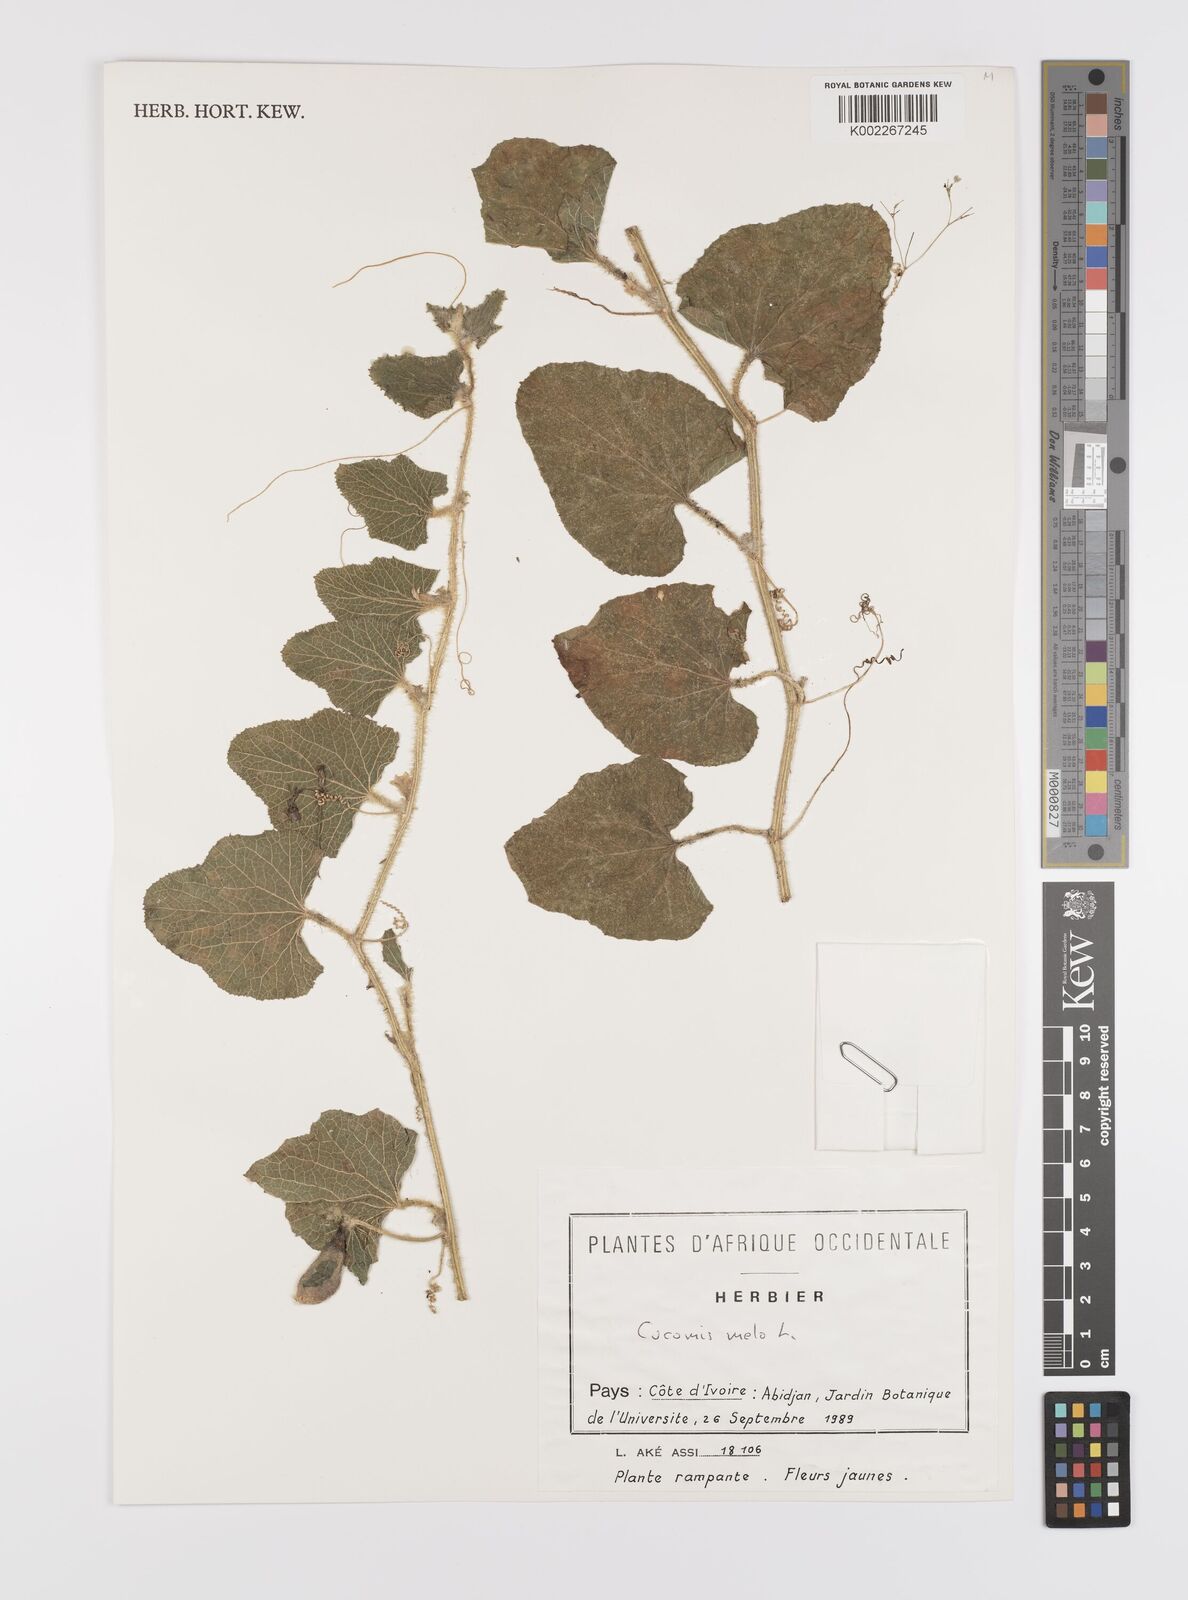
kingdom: Plantae
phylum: Tracheophyta
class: Magnoliopsida
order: Cucurbitales
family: Cucurbitaceae
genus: Cucumis
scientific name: Cucumis melo
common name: Melon
